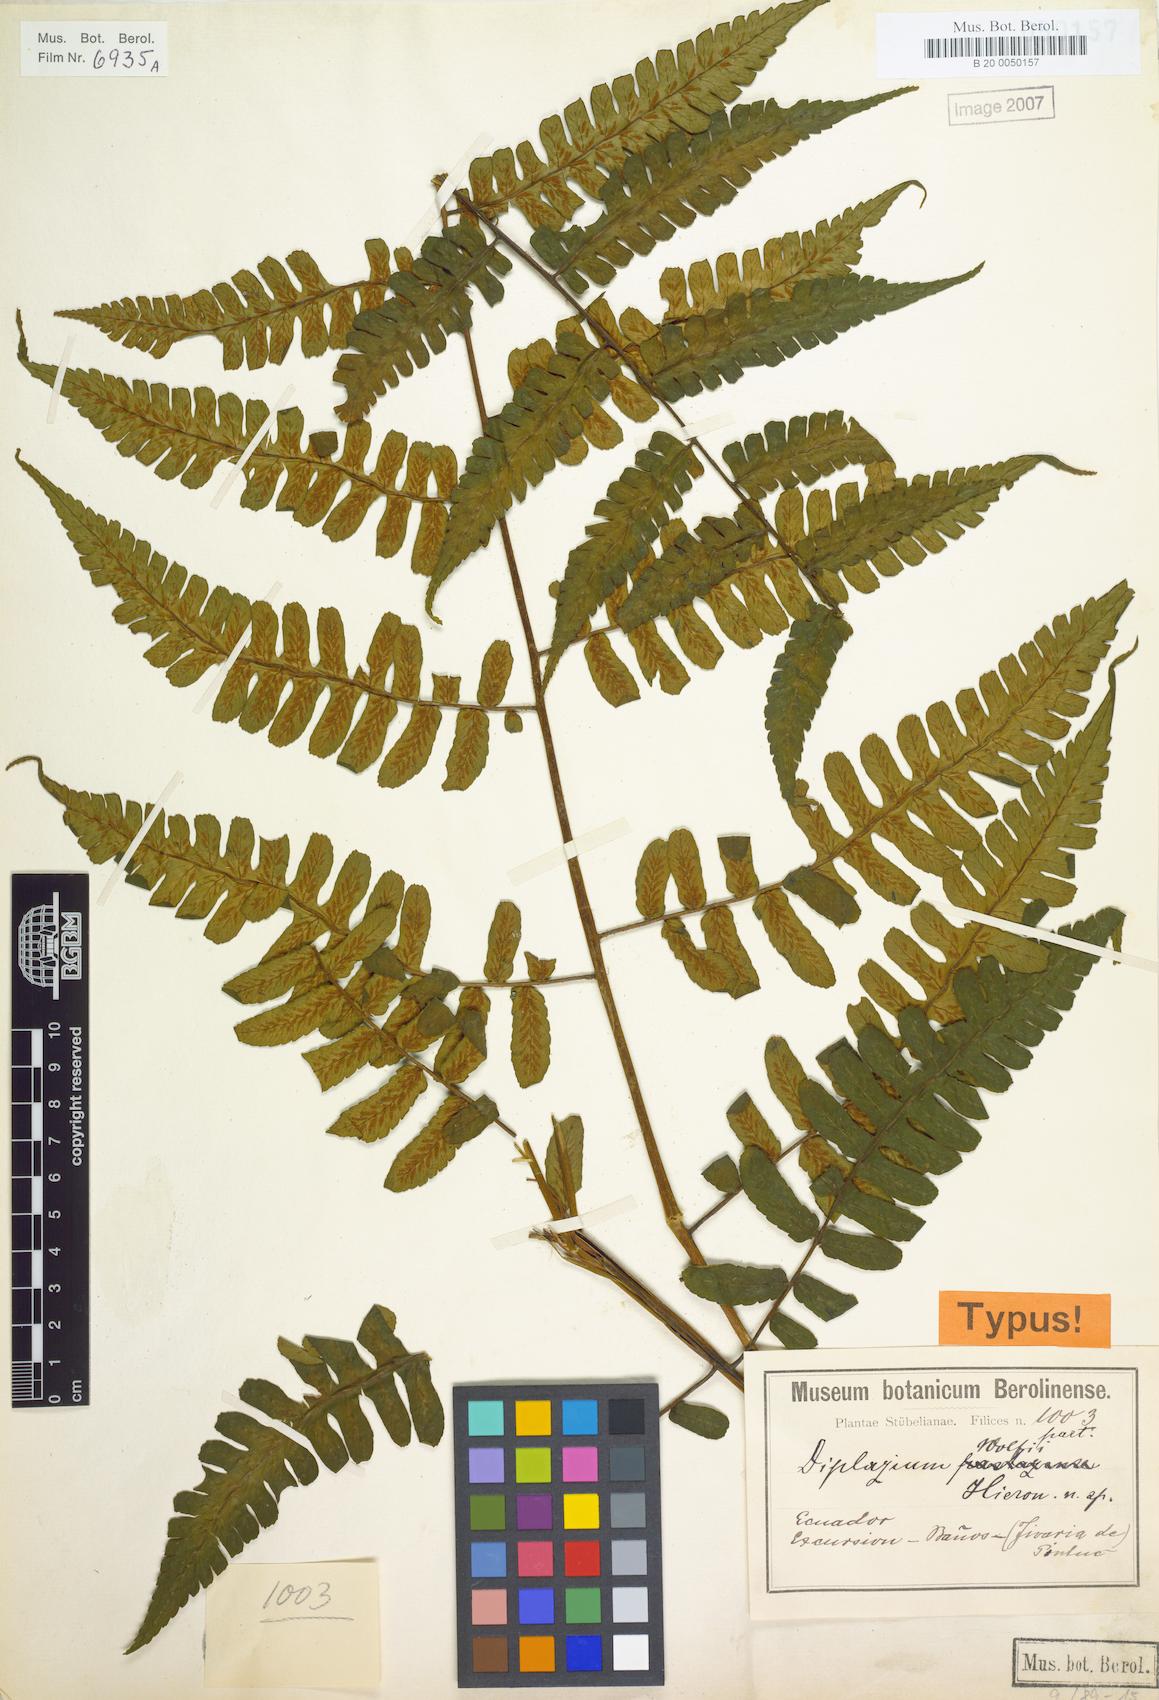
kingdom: Plantae
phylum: Tracheophyta
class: Polypodiopsida
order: Polypodiales
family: Athyriaceae
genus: Diplazium
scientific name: Diplazium wolfii
